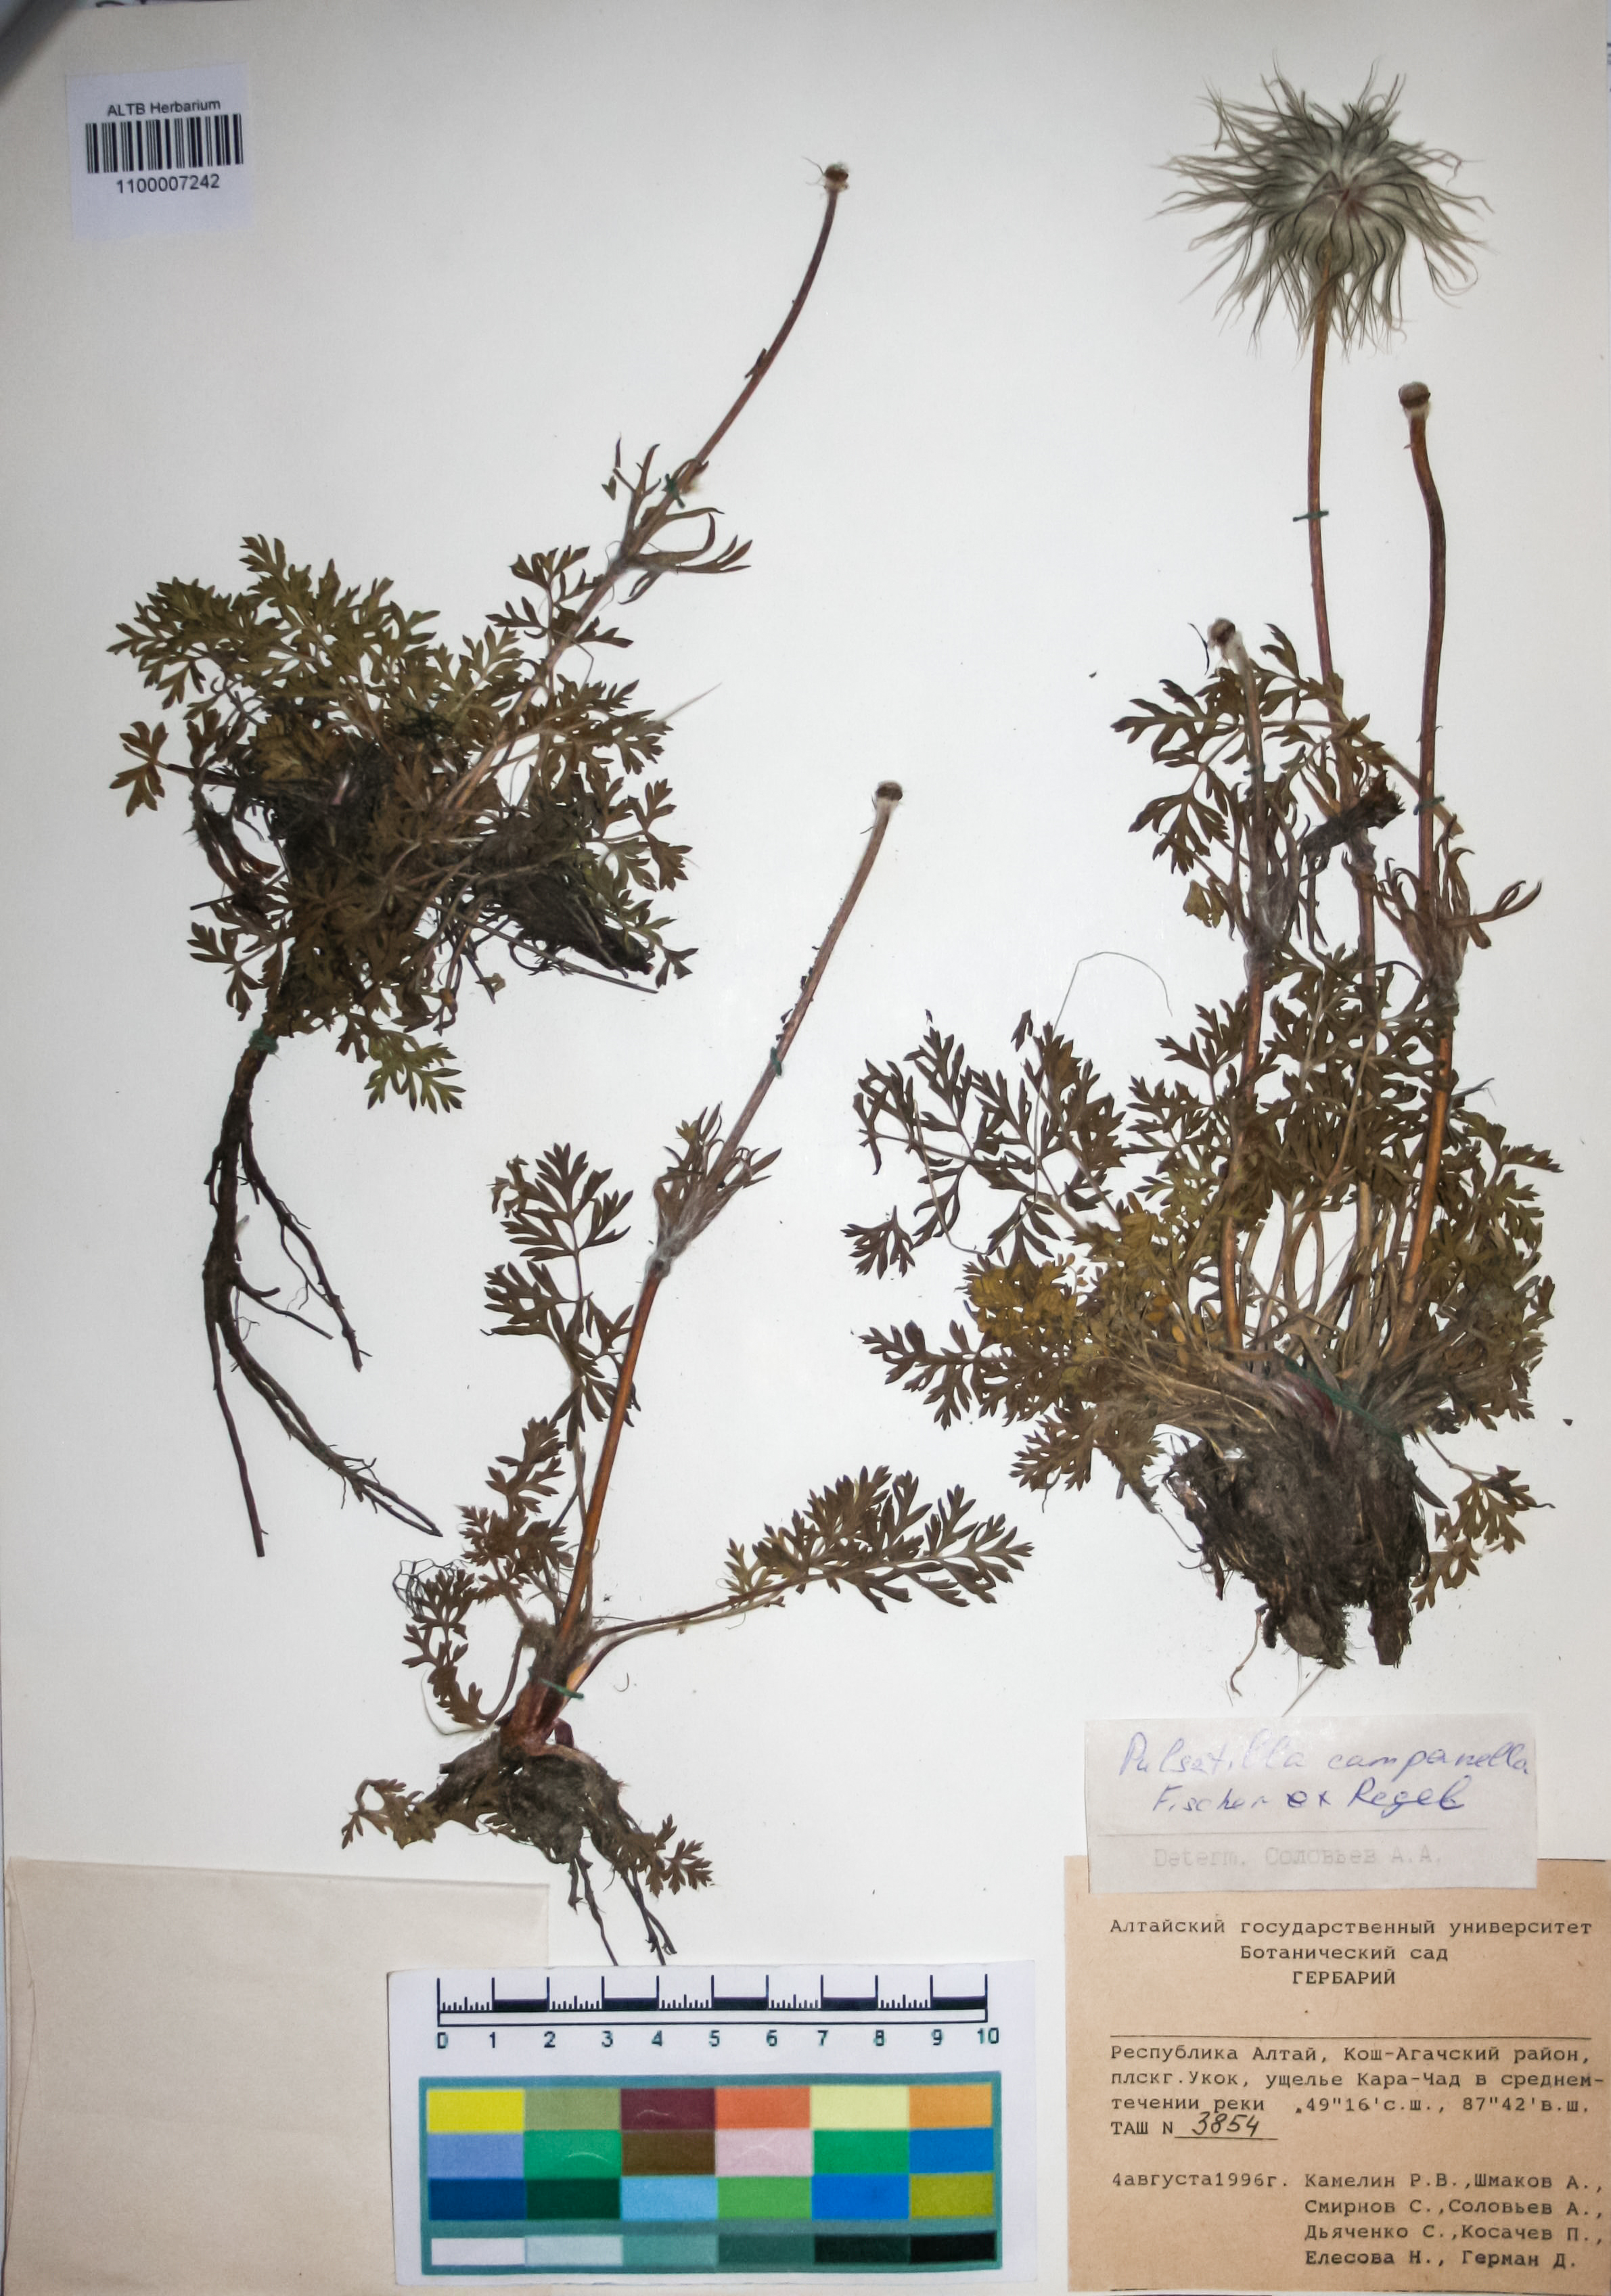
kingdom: Plantae
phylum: Tracheophyta
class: Magnoliopsida
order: Ranunculales
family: Ranunculaceae
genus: Pulsatilla
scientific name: Pulsatilla campanella
